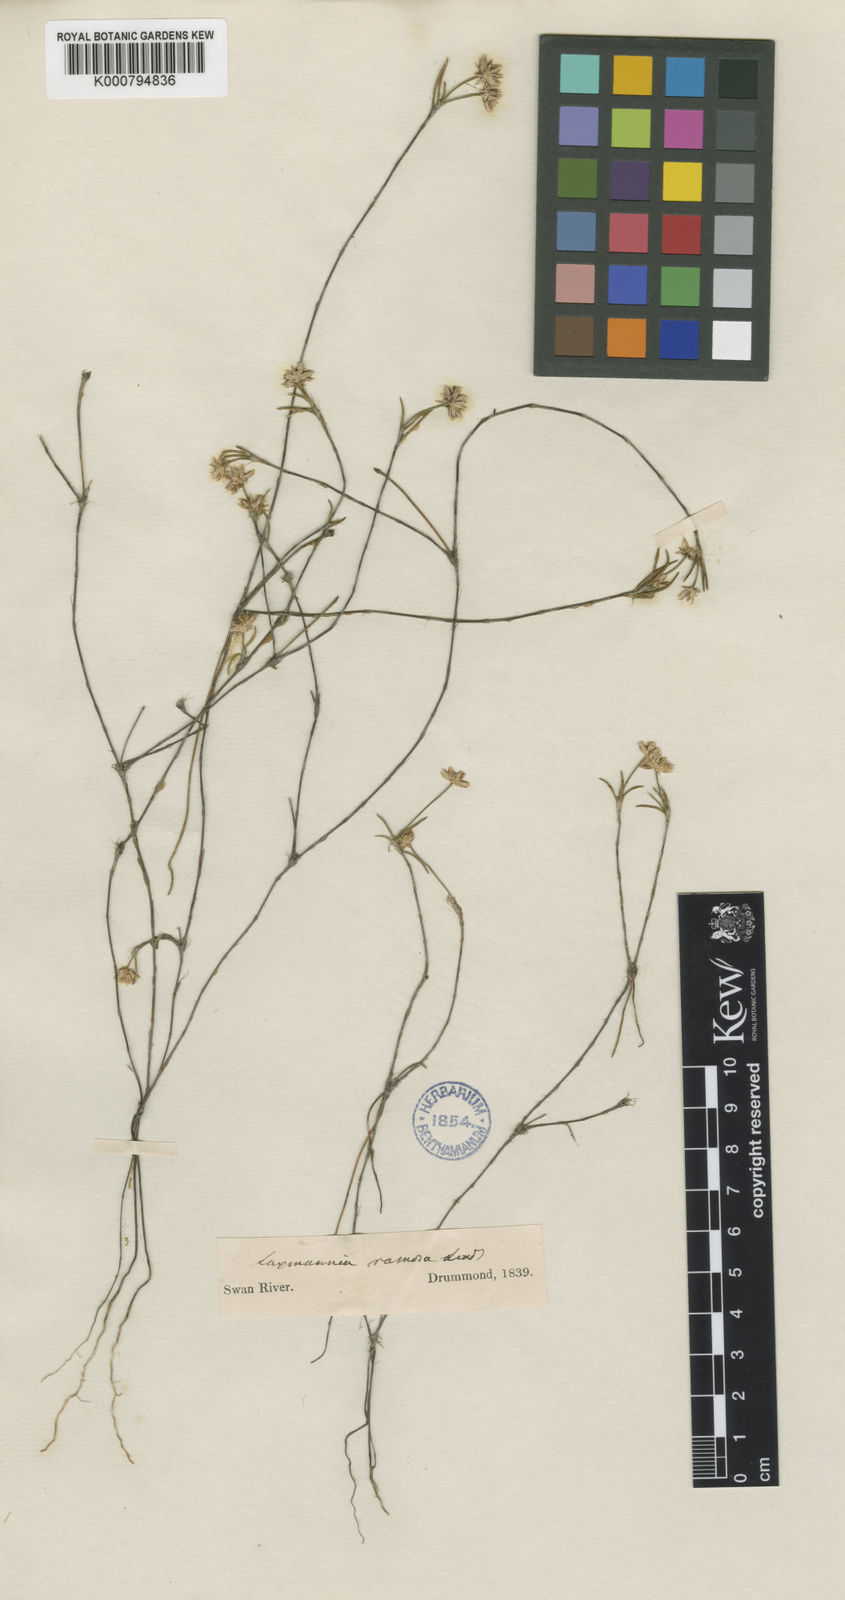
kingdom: Plantae
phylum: Tracheophyta
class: Liliopsida
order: Asparagales
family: Asparagaceae
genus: Laxmannia
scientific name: Laxmannia ramosa
